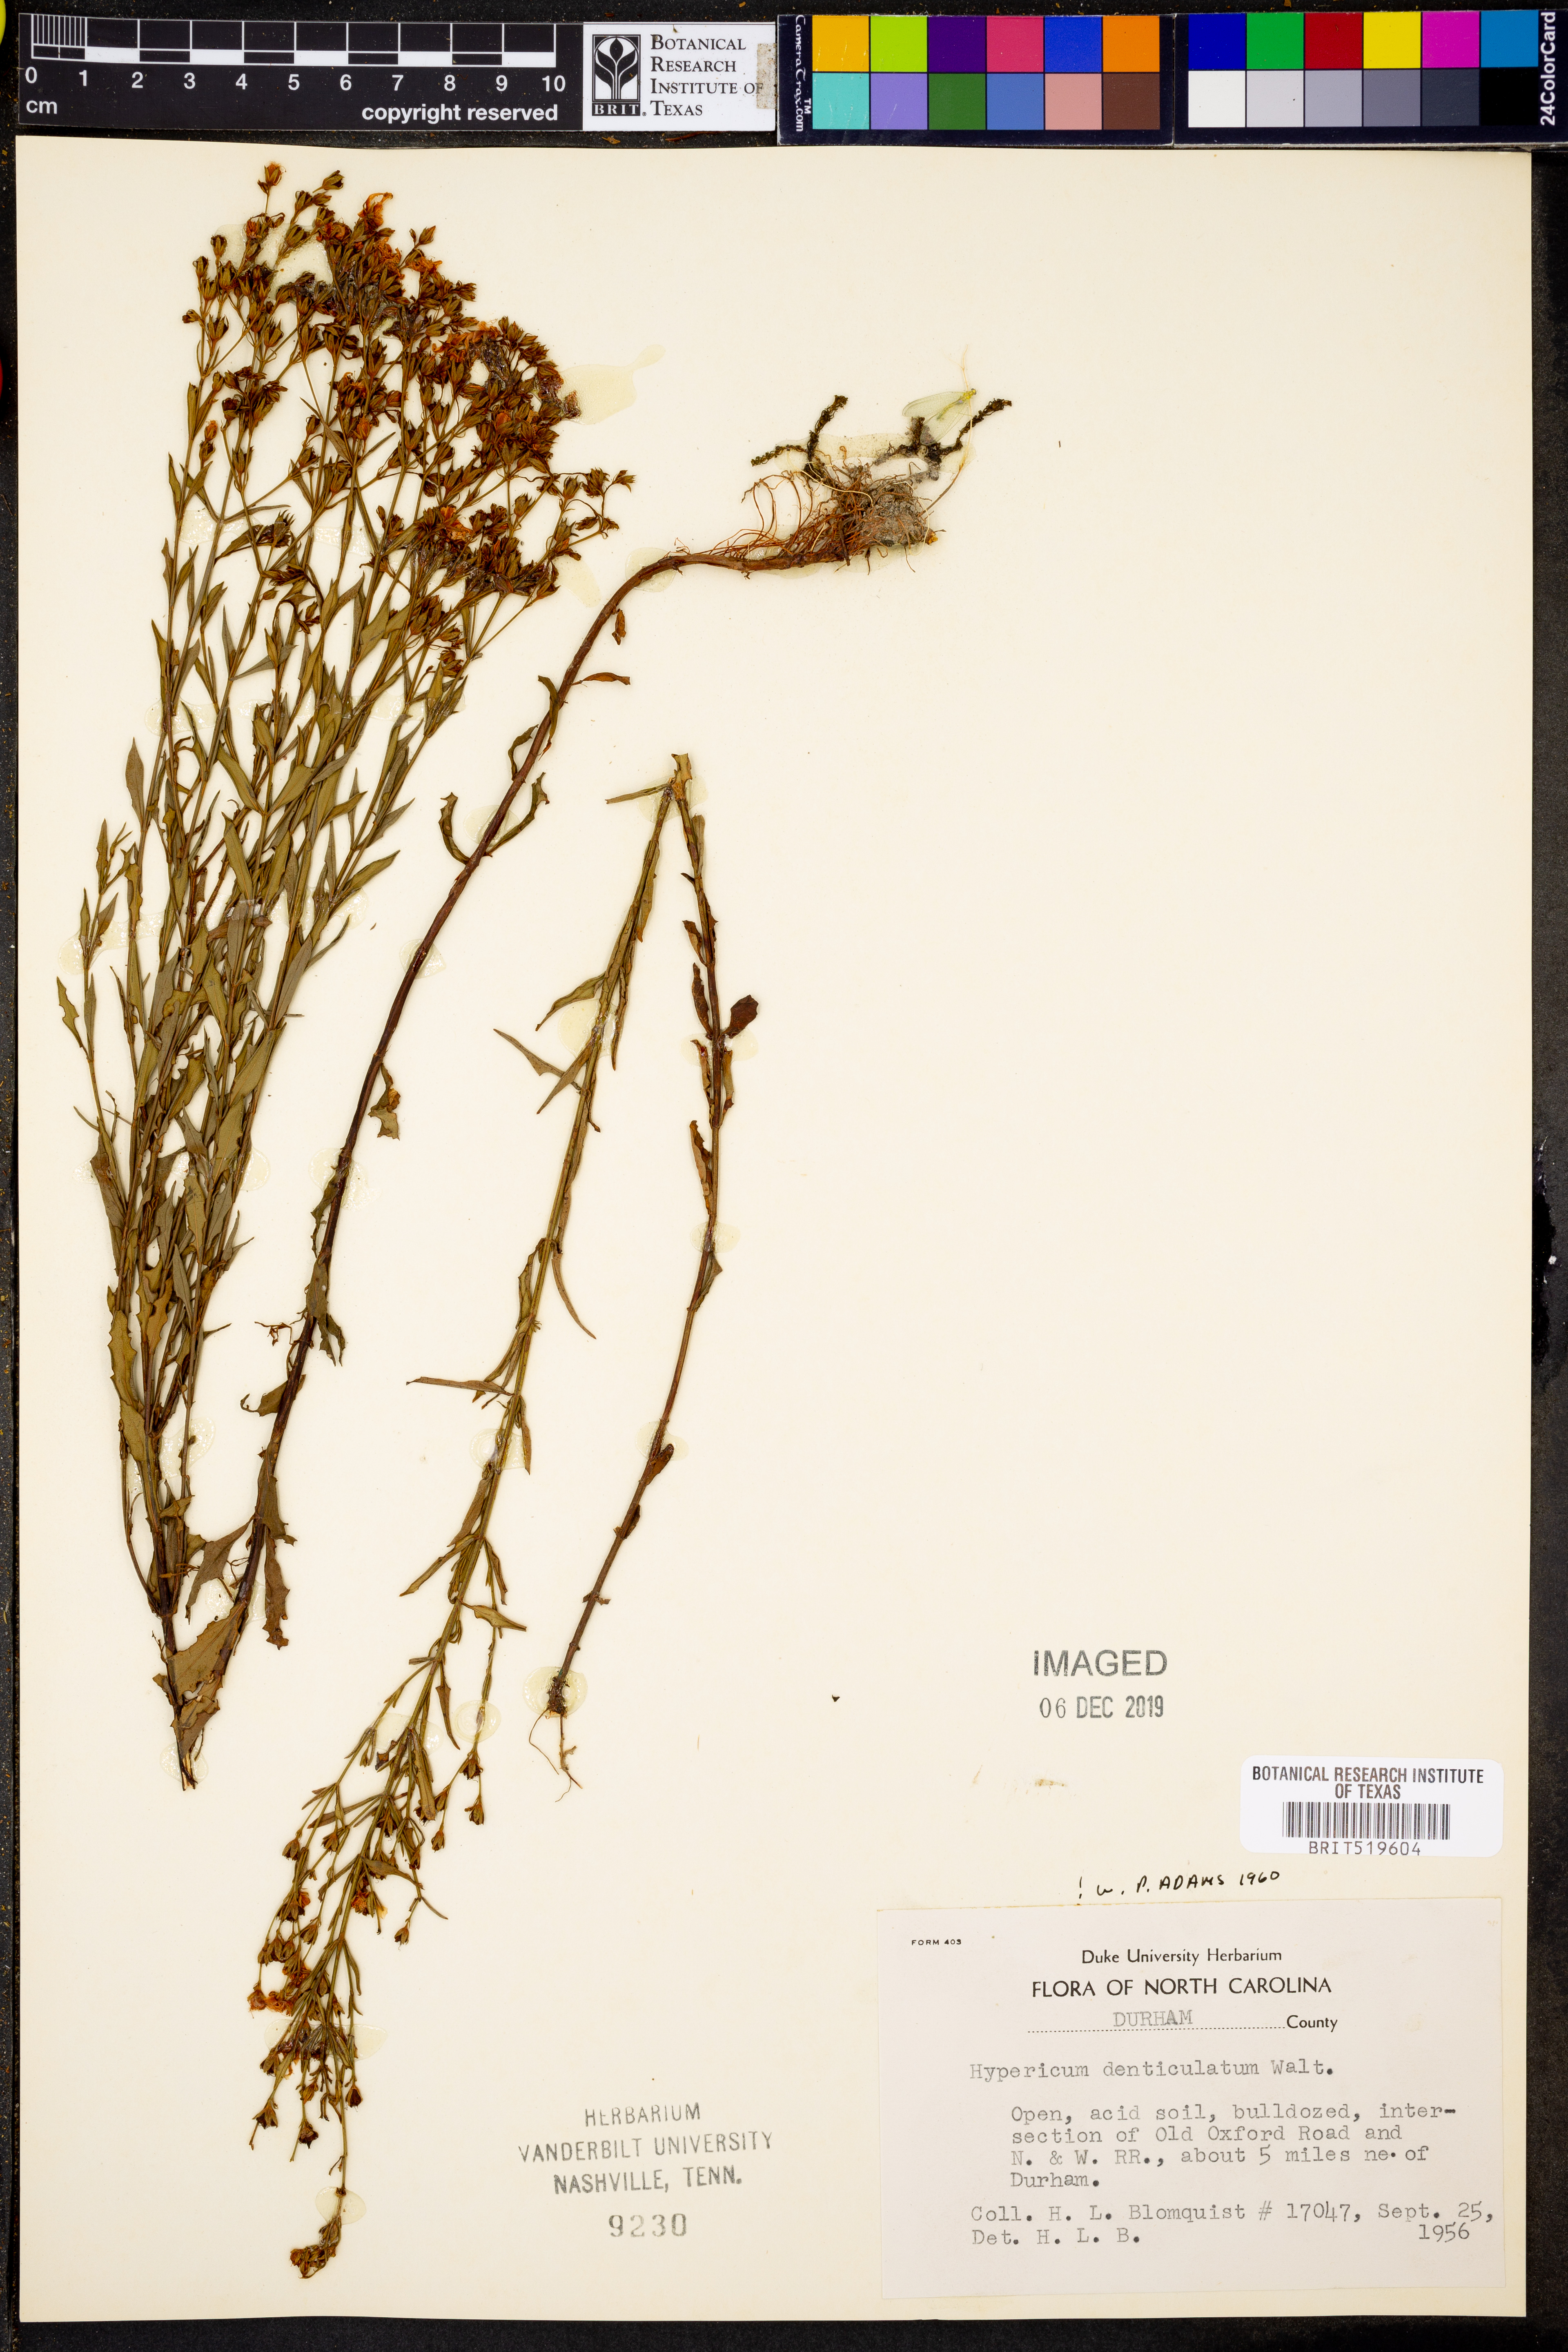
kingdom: Plantae
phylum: Tracheophyta
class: Magnoliopsida
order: Malpighiales
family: Hypericaceae
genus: Hypericum
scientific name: Hypericum denticulatum
